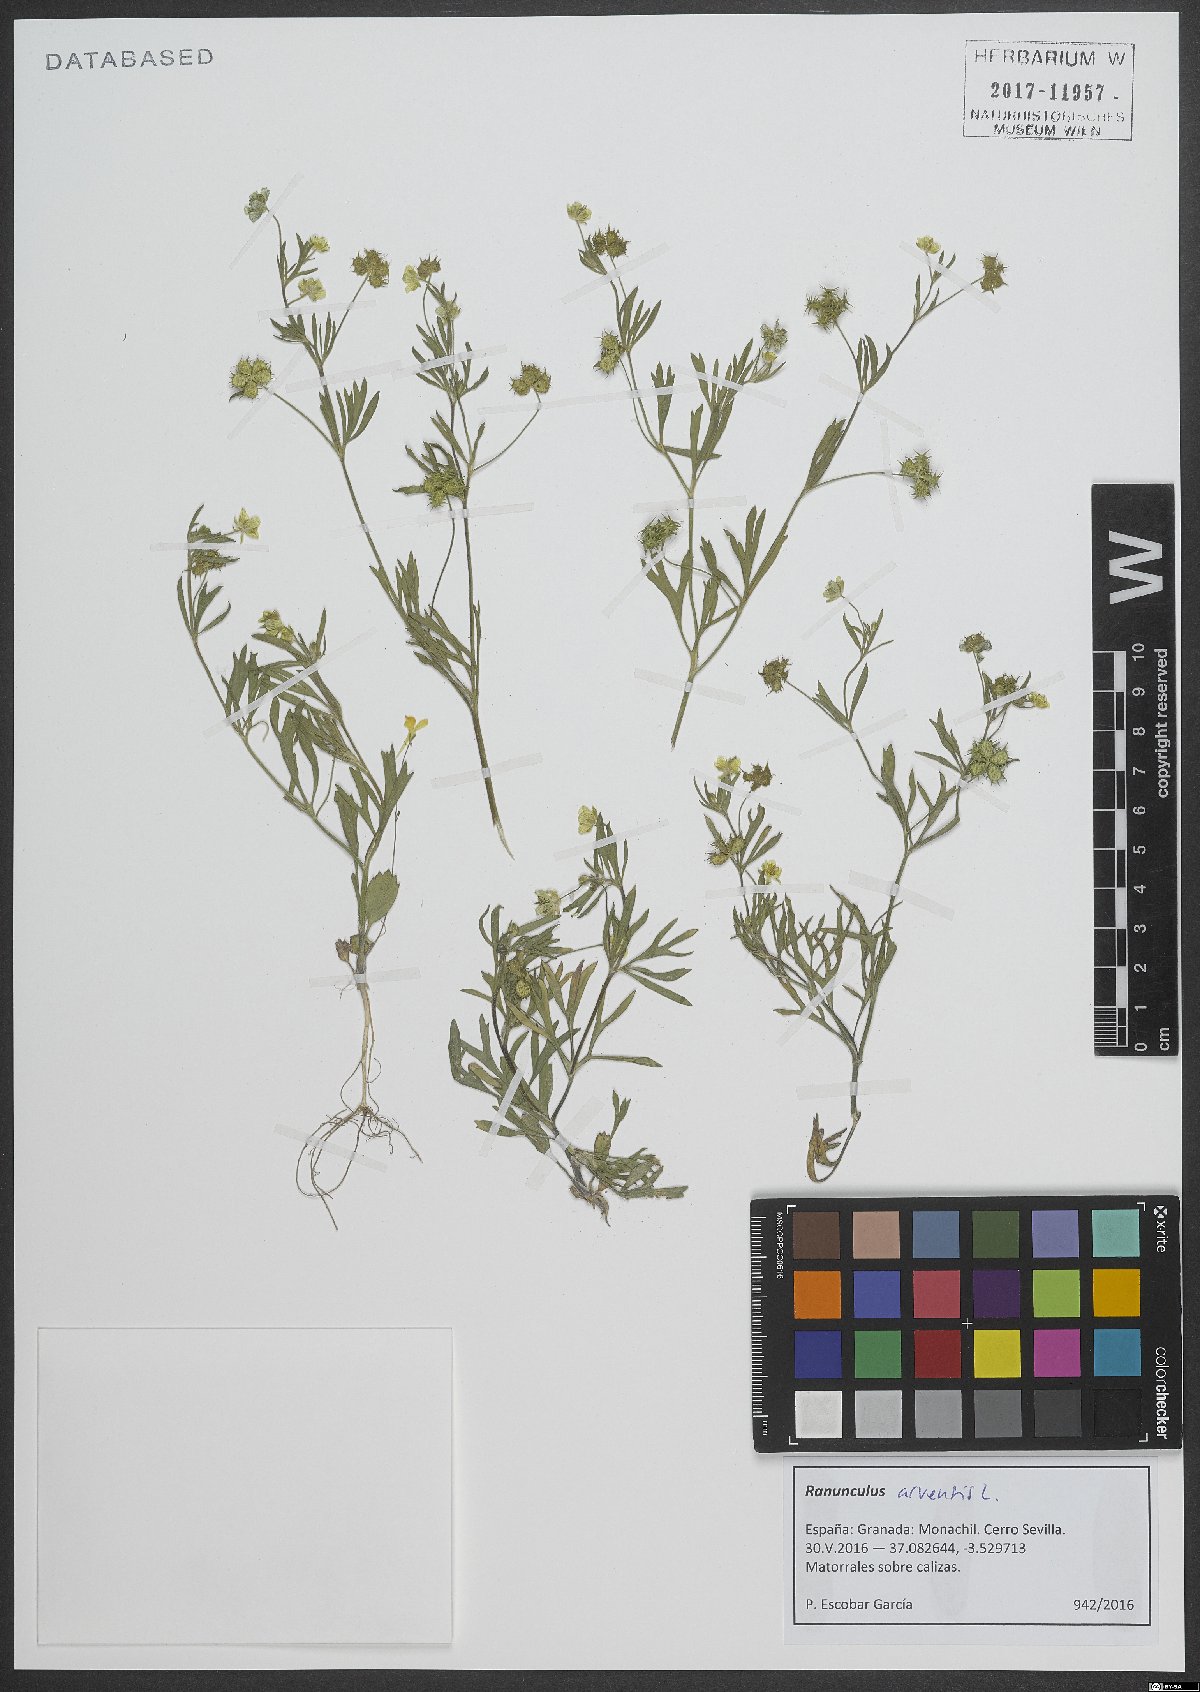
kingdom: Plantae
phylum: Tracheophyta
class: Magnoliopsida
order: Ranunculales
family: Ranunculaceae
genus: Ranunculus
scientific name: Ranunculus arvensis
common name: Corn buttercup
